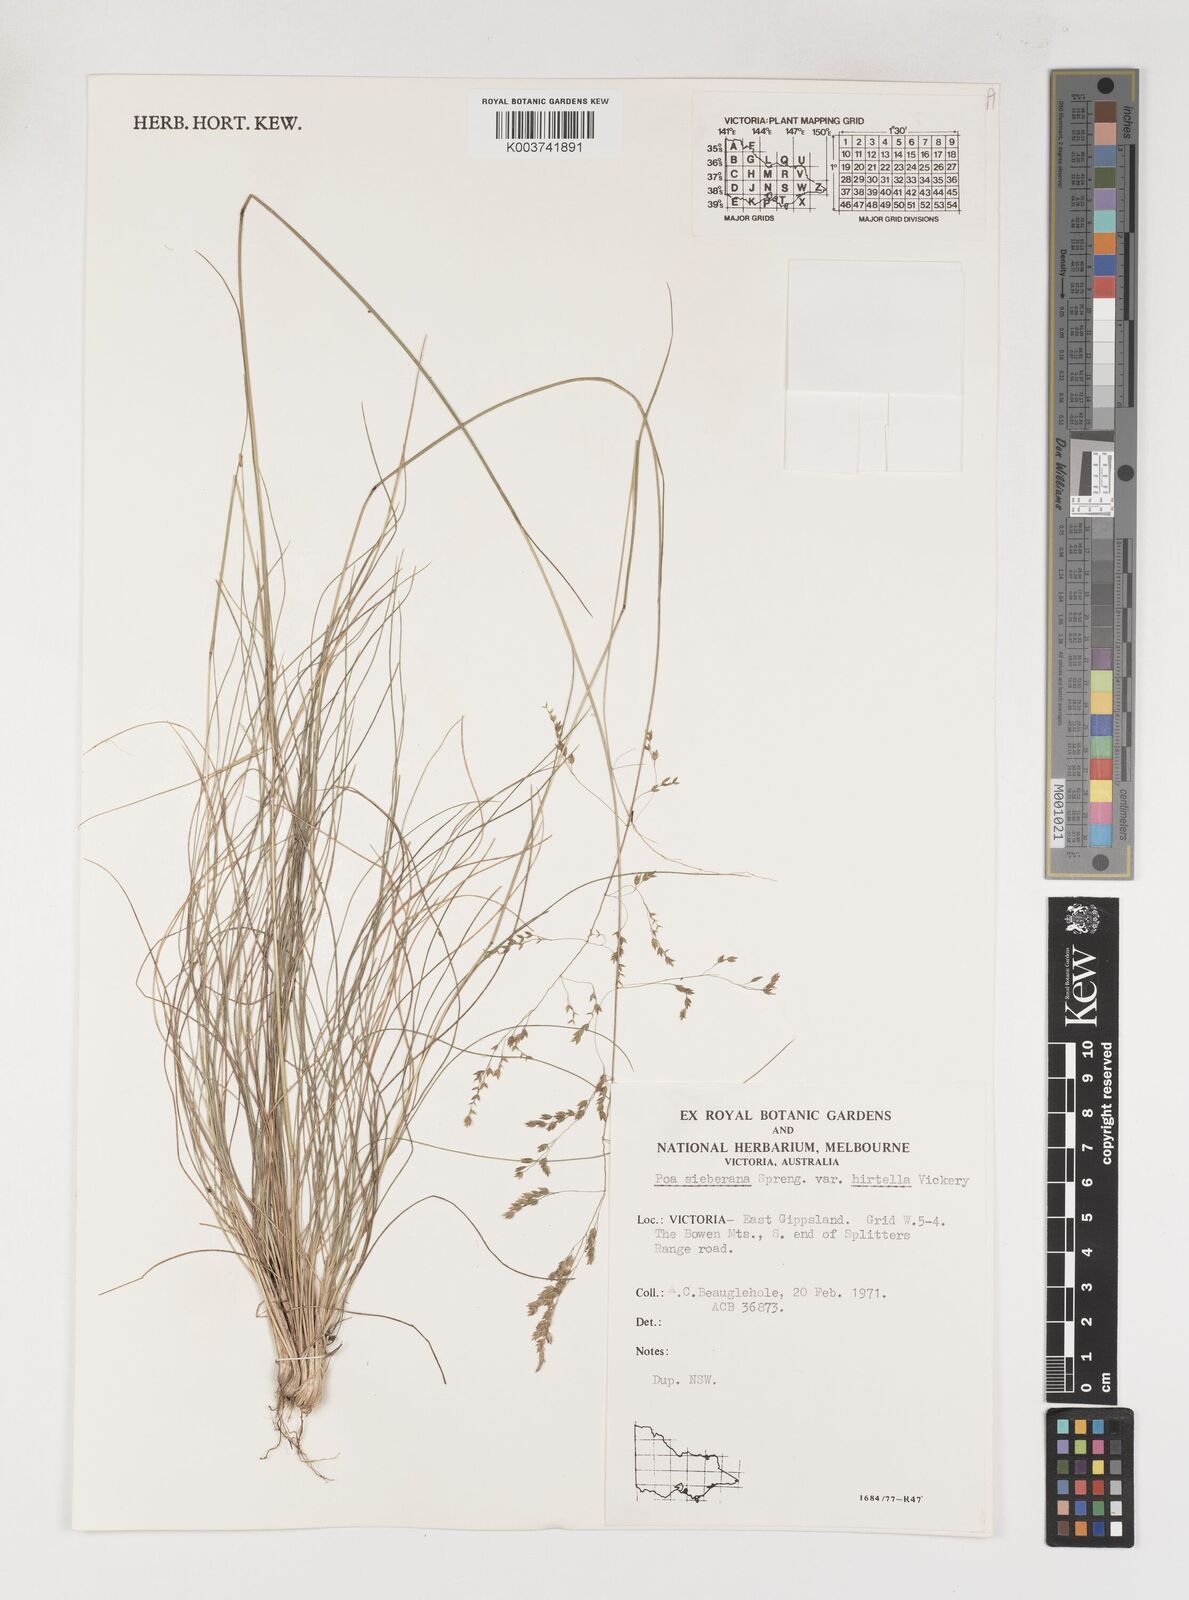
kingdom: Plantae
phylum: Tracheophyta
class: Liliopsida
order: Poales
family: Poaceae
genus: Poa
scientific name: Poa sieberiana
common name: Tussock poa
